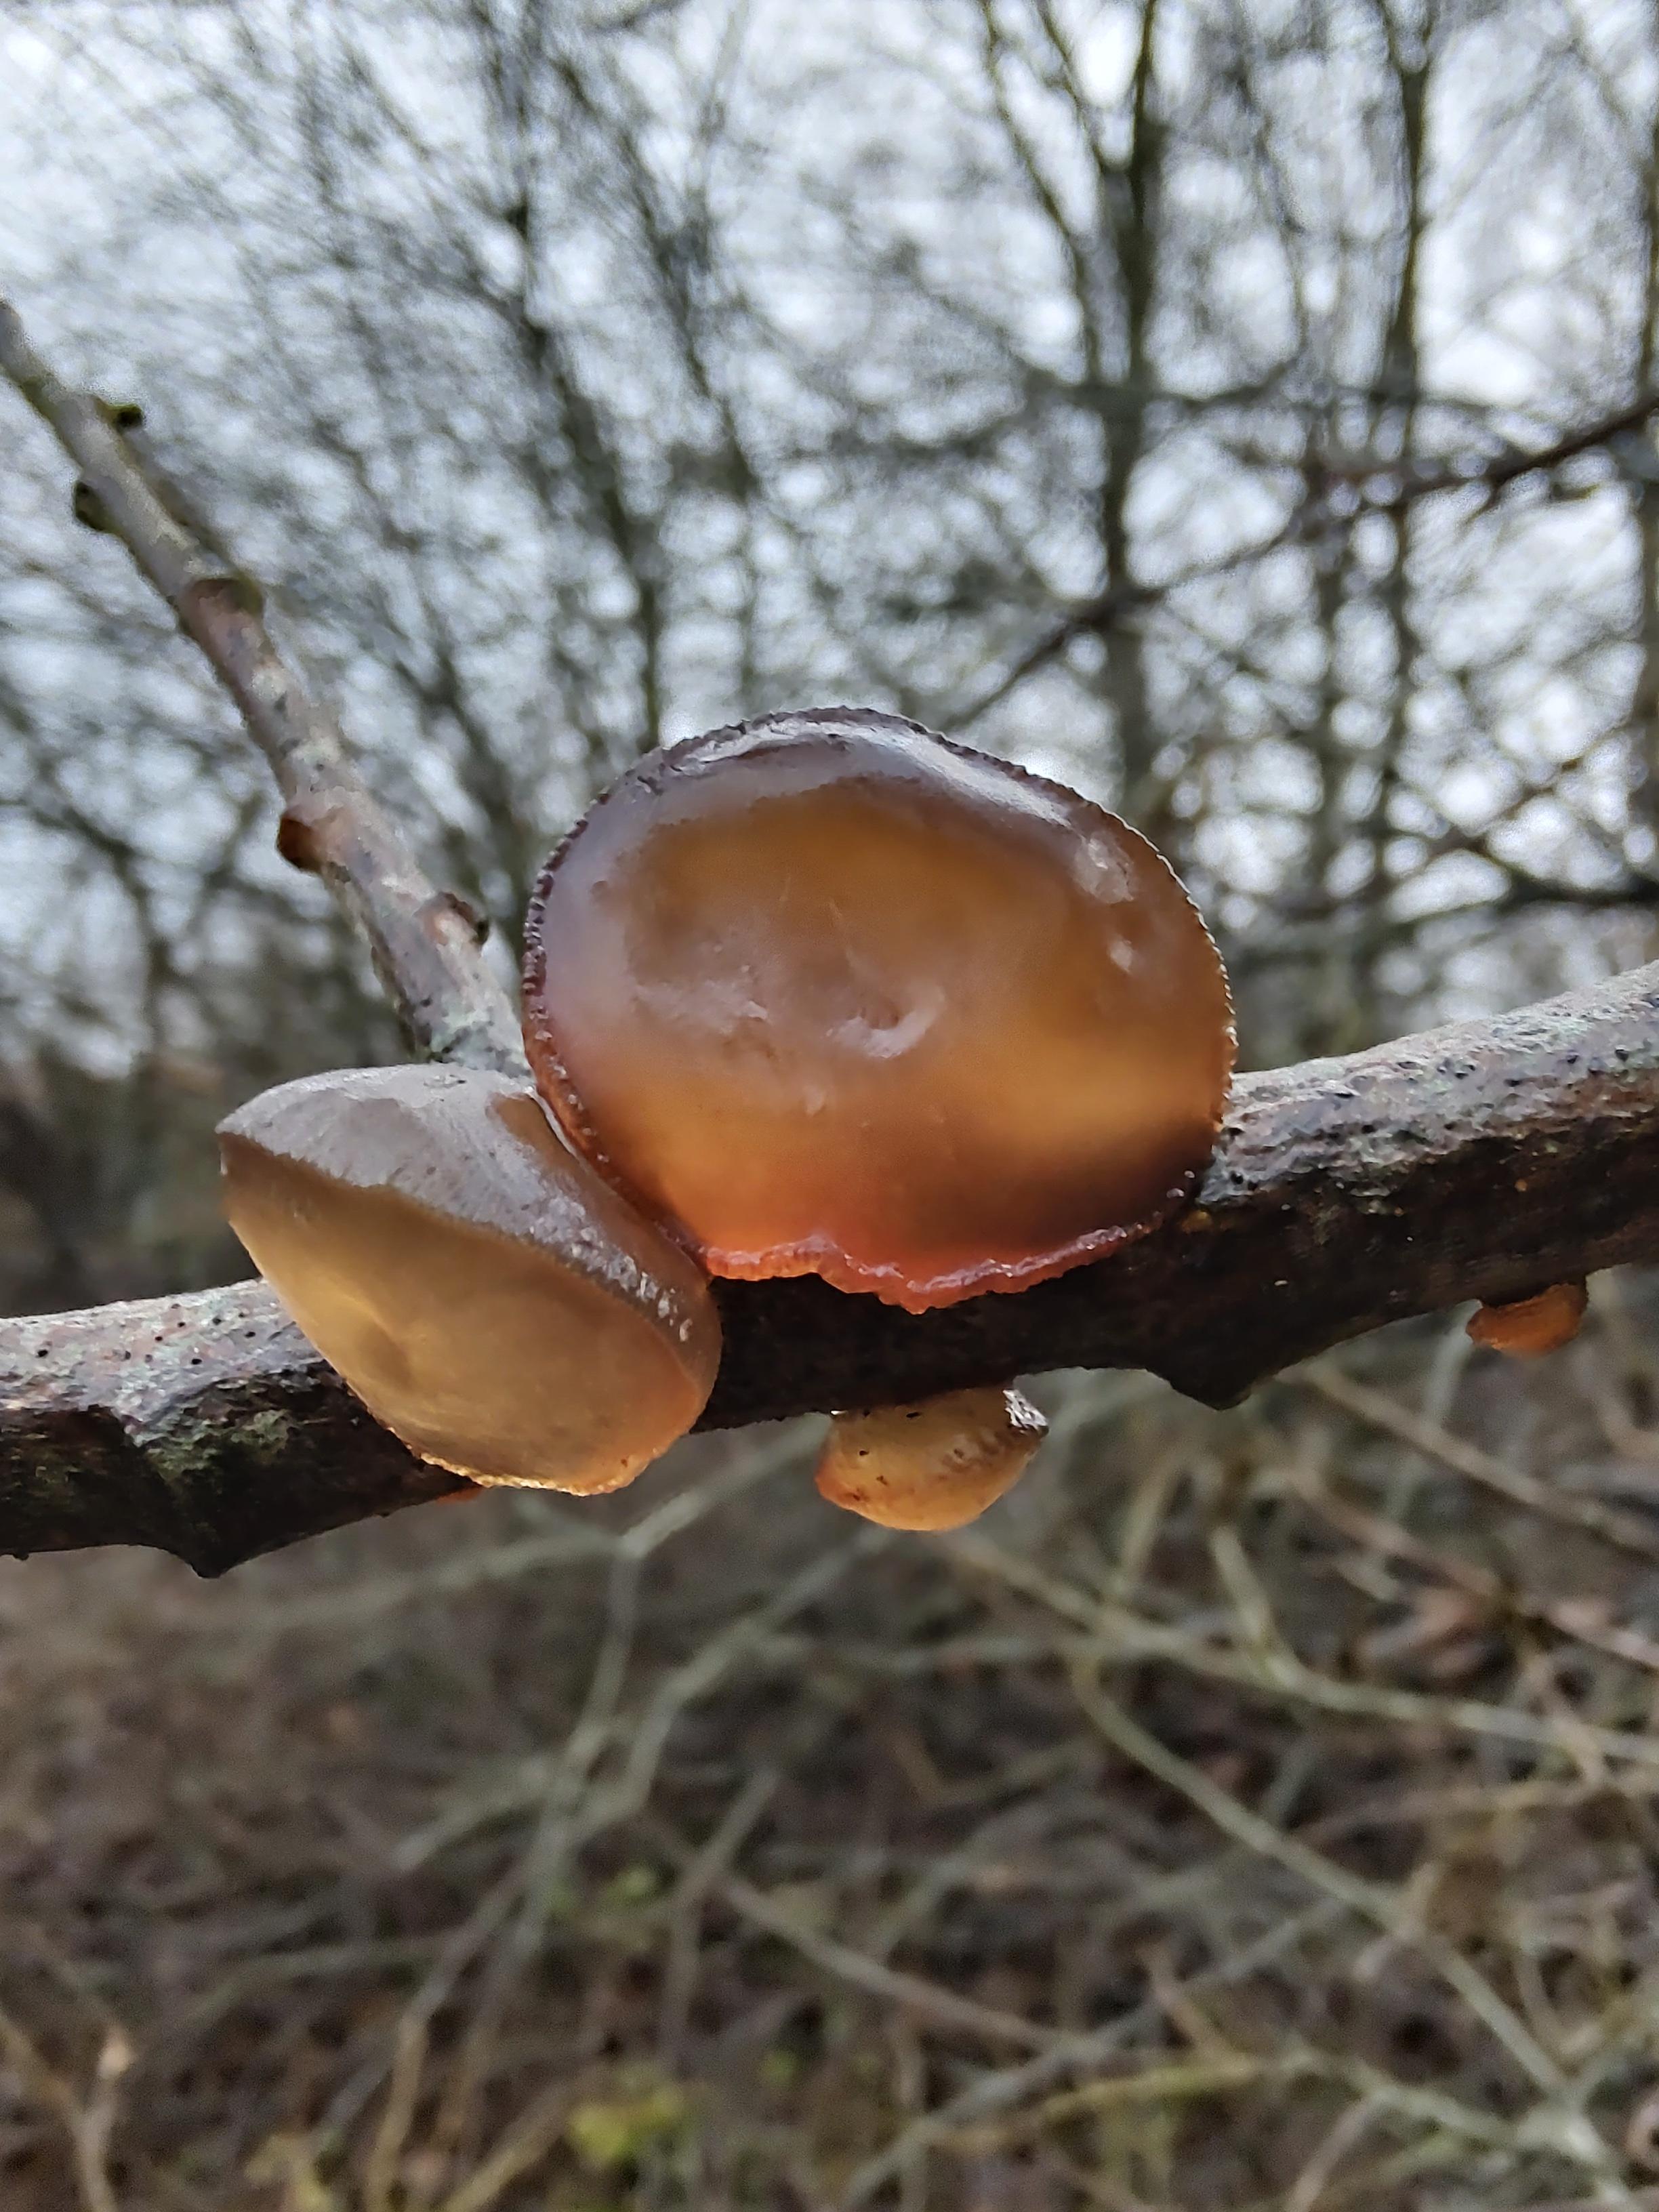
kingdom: Fungi
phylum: Basidiomycota
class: Agaricomycetes
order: Auriculariales
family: Auriculariaceae
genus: Exidia
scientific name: Exidia recisa
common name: pile-bævretop
